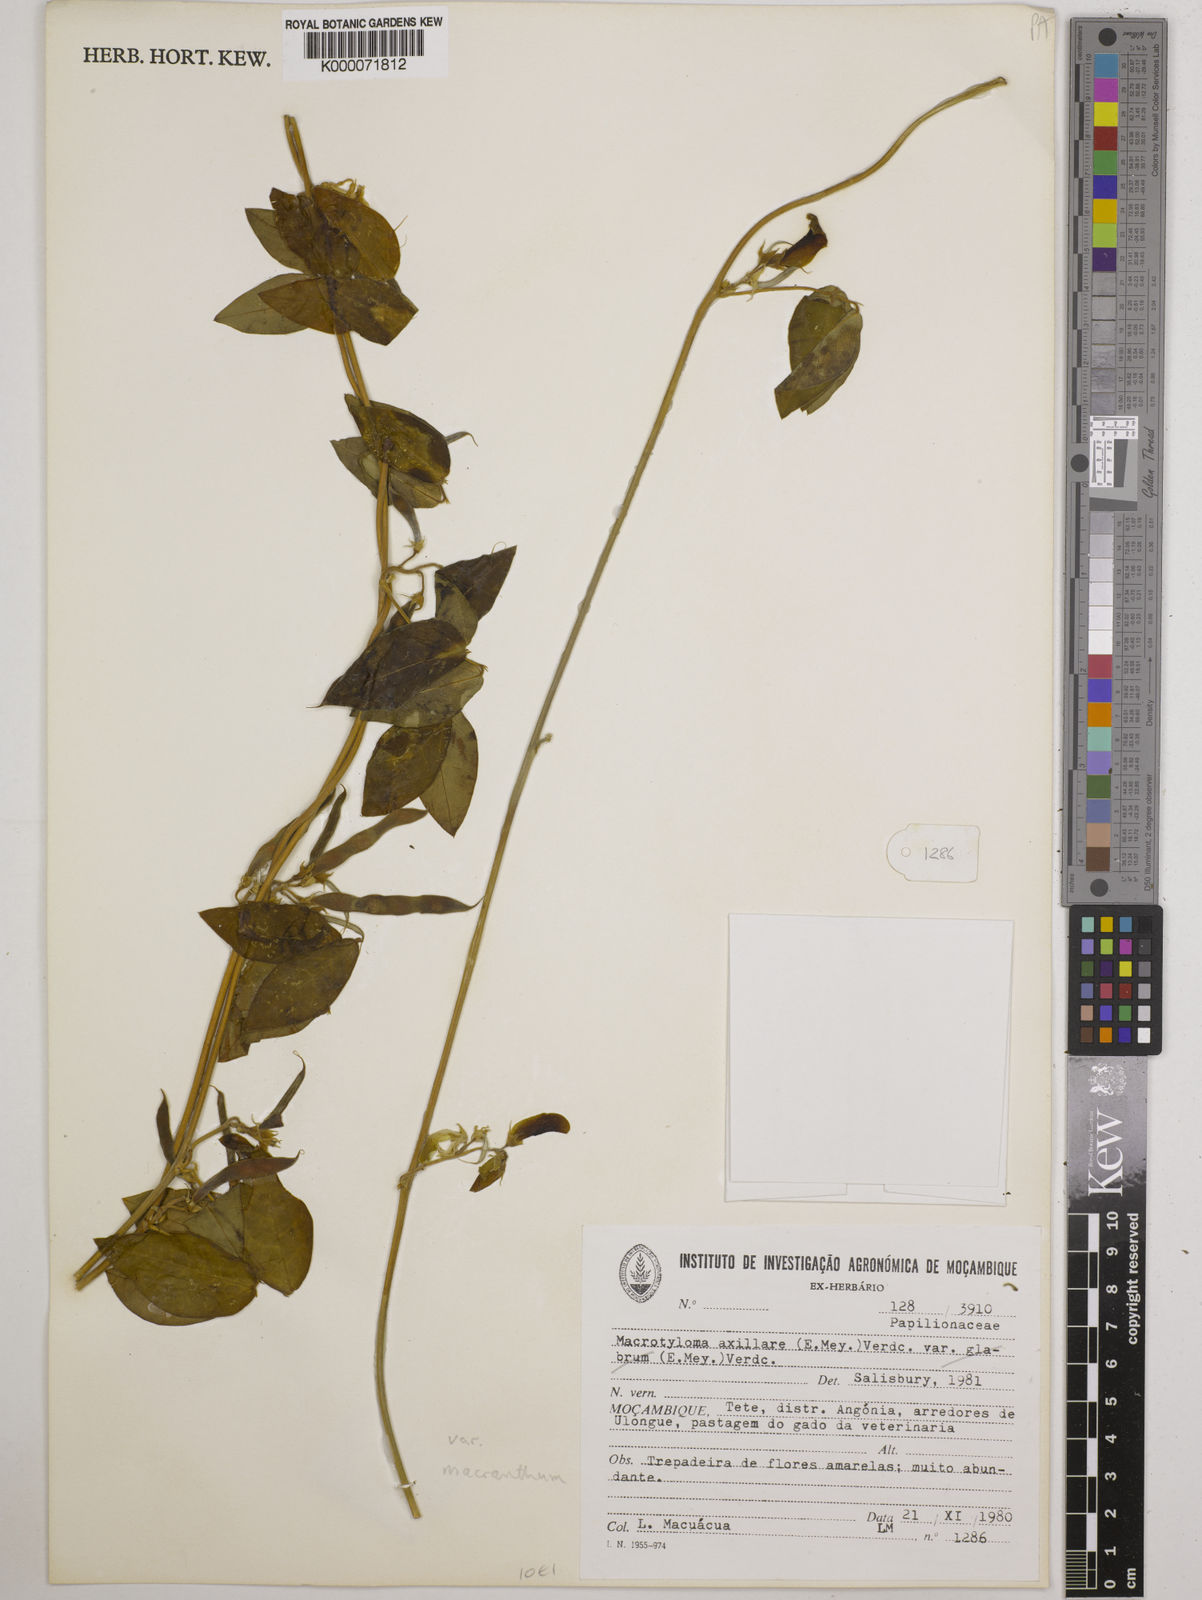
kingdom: Plantae
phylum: Tracheophyta
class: Magnoliopsida
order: Fabales
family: Fabaceae
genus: Macrotyloma
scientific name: Macrotyloma axillare
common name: Perennial horsegram
